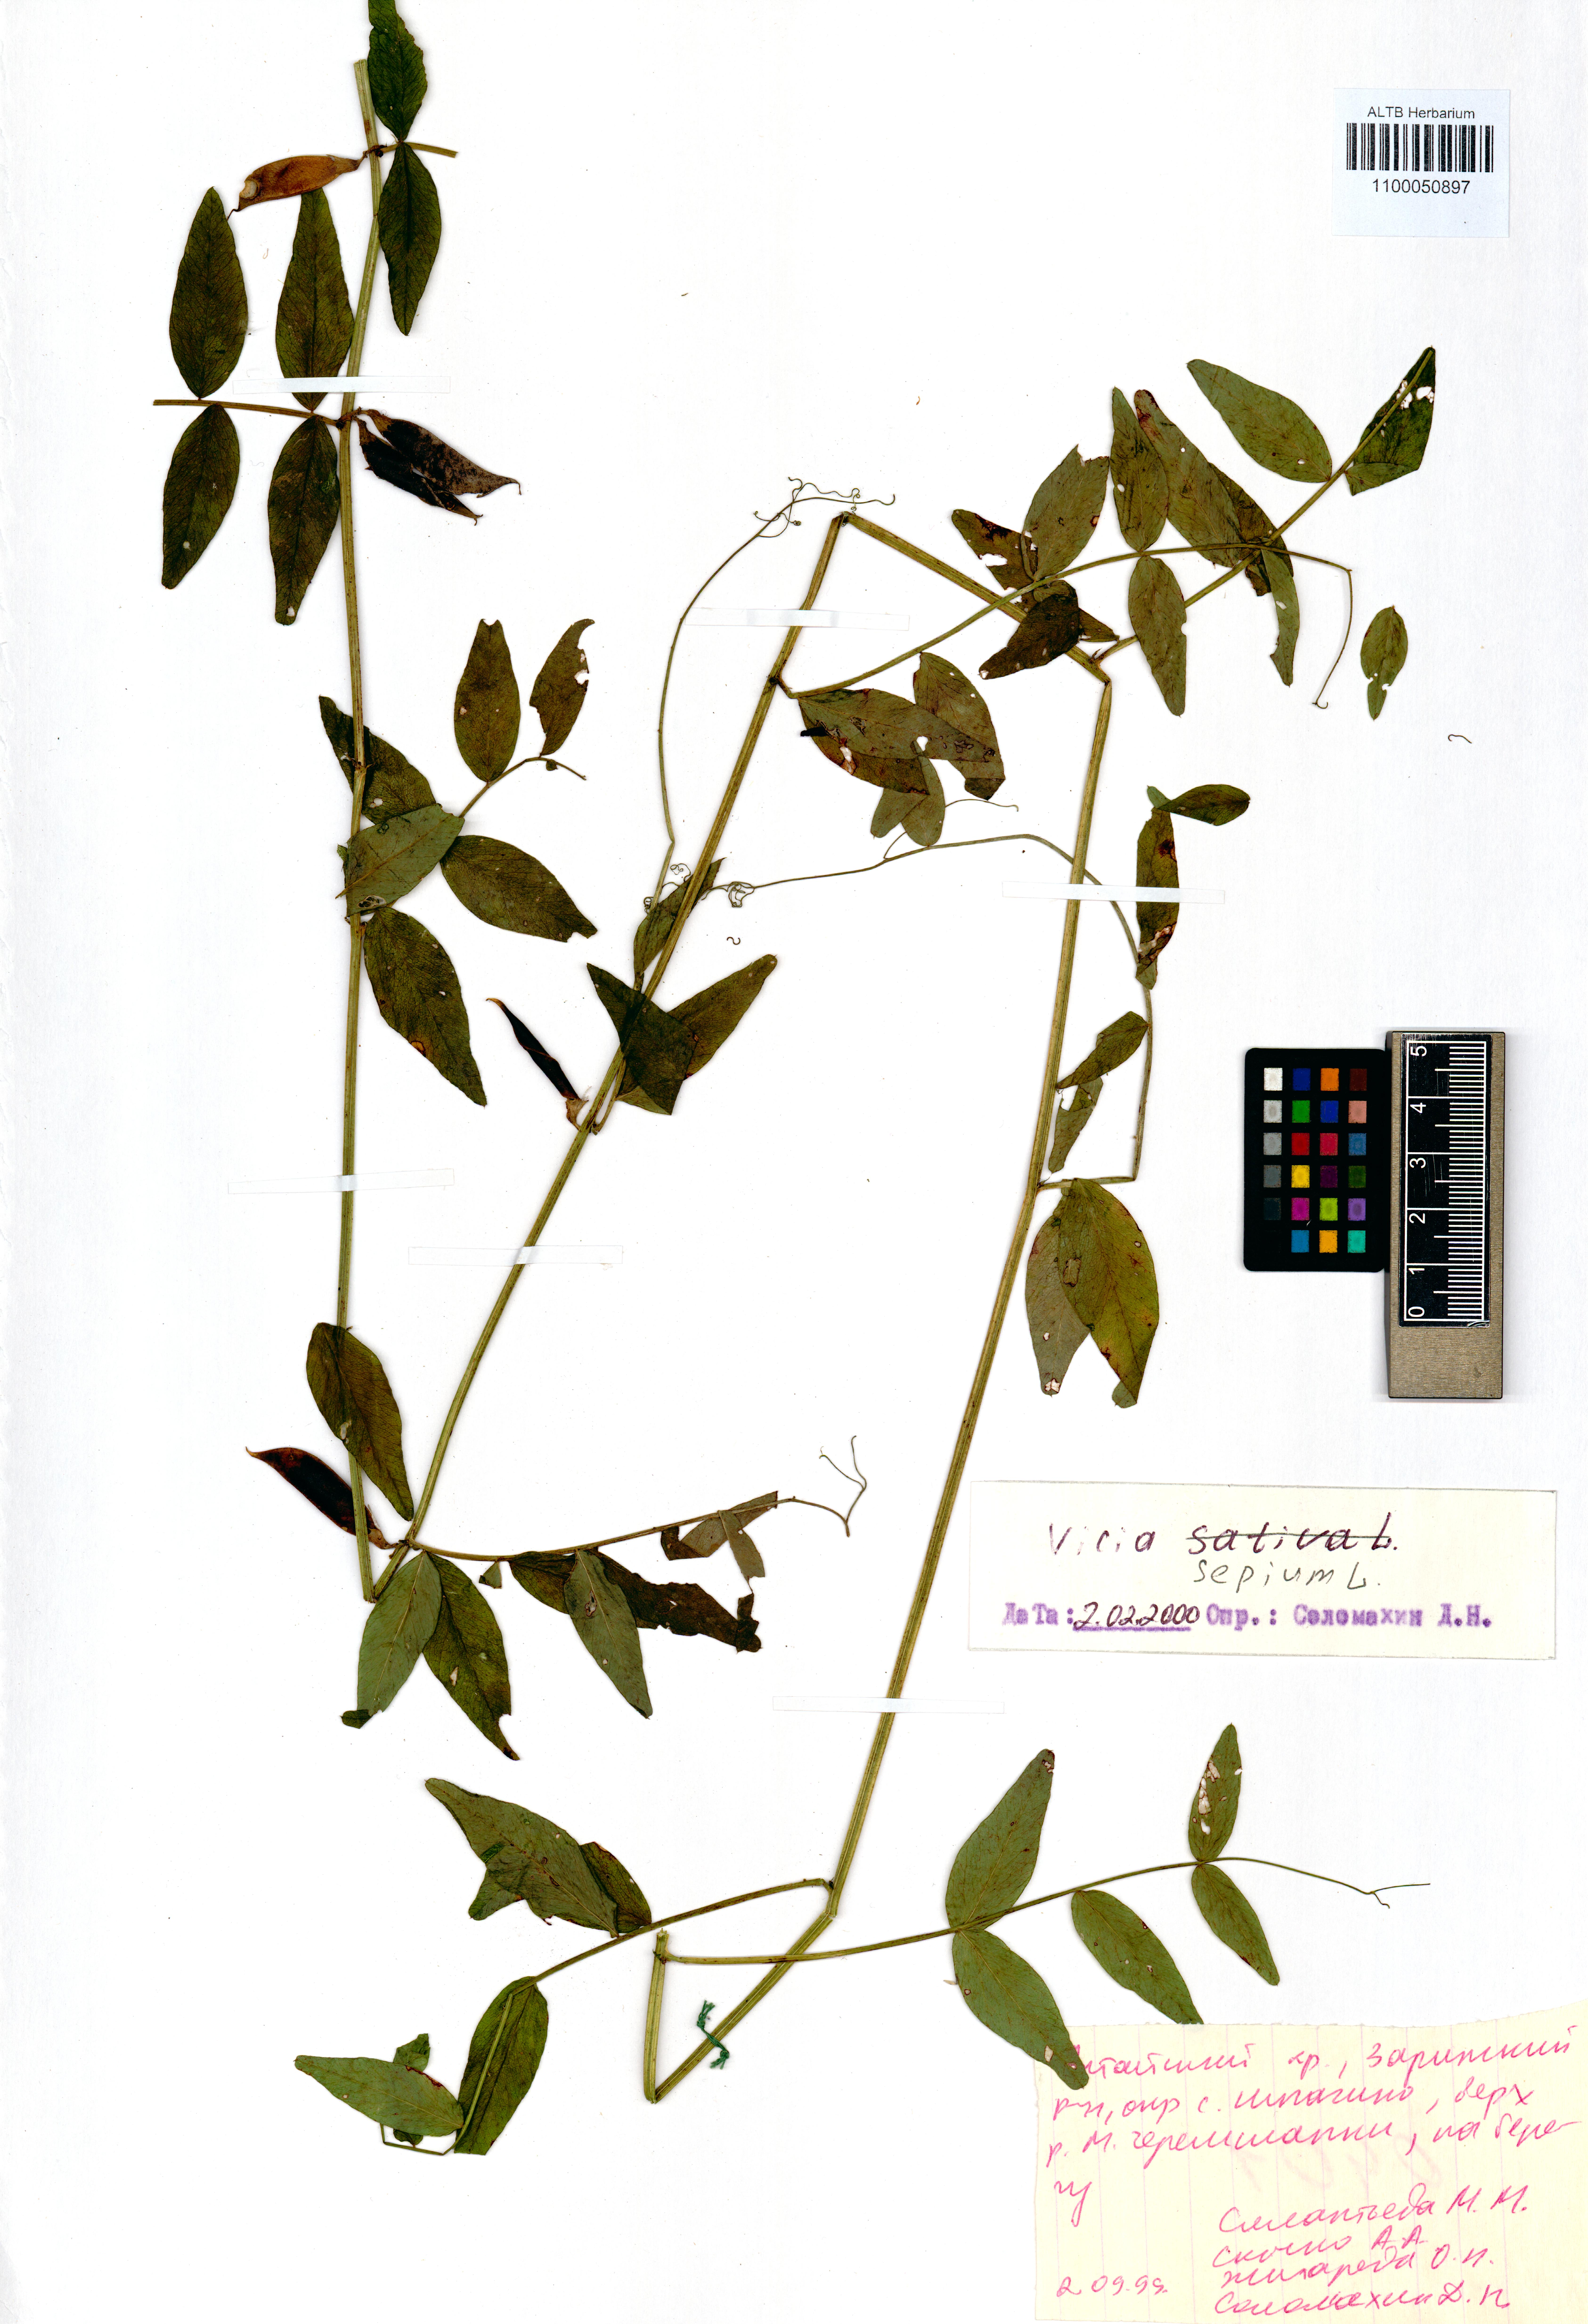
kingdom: Plantae
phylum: Tracheophyta
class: Magnoliopsida
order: Fabales
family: Fabaceae
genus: Vicia
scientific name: Vicia sepium
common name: Bush vetch
